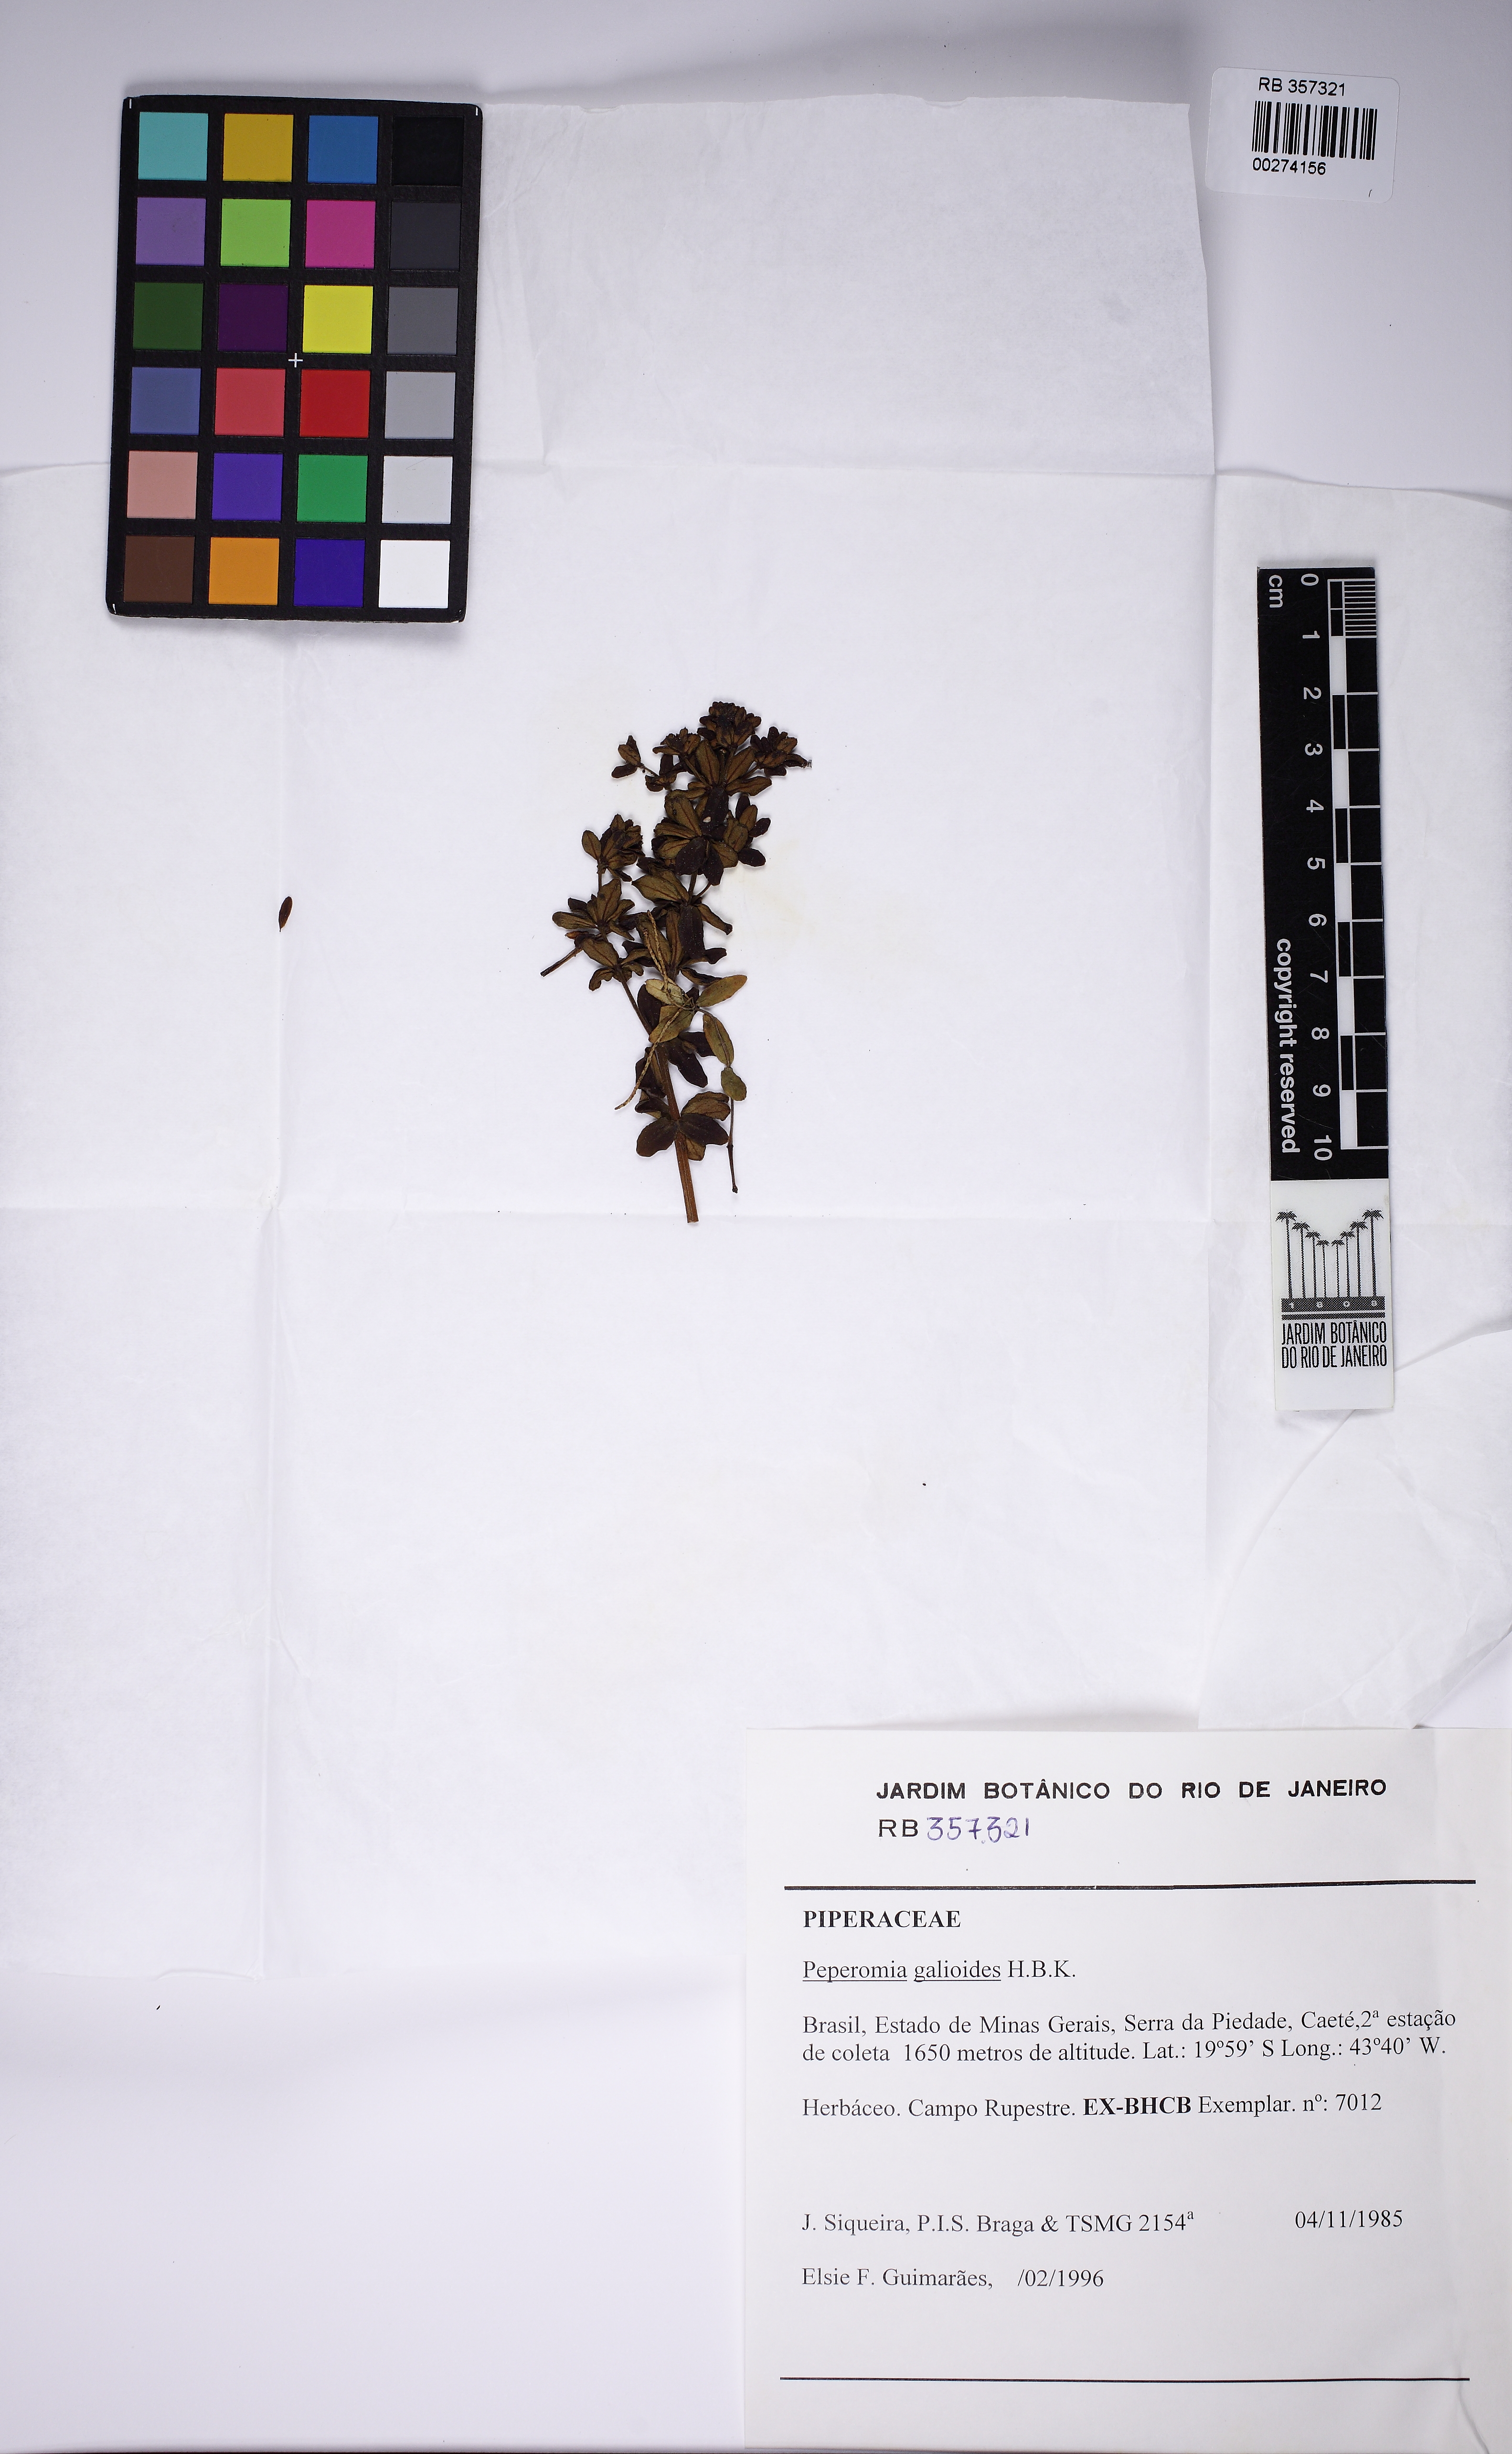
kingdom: Plantae
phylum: Tracheophyta
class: Magnoliopsida
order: Piperales
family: Piperaceae
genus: Peperomia
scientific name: Peperomia galioides
